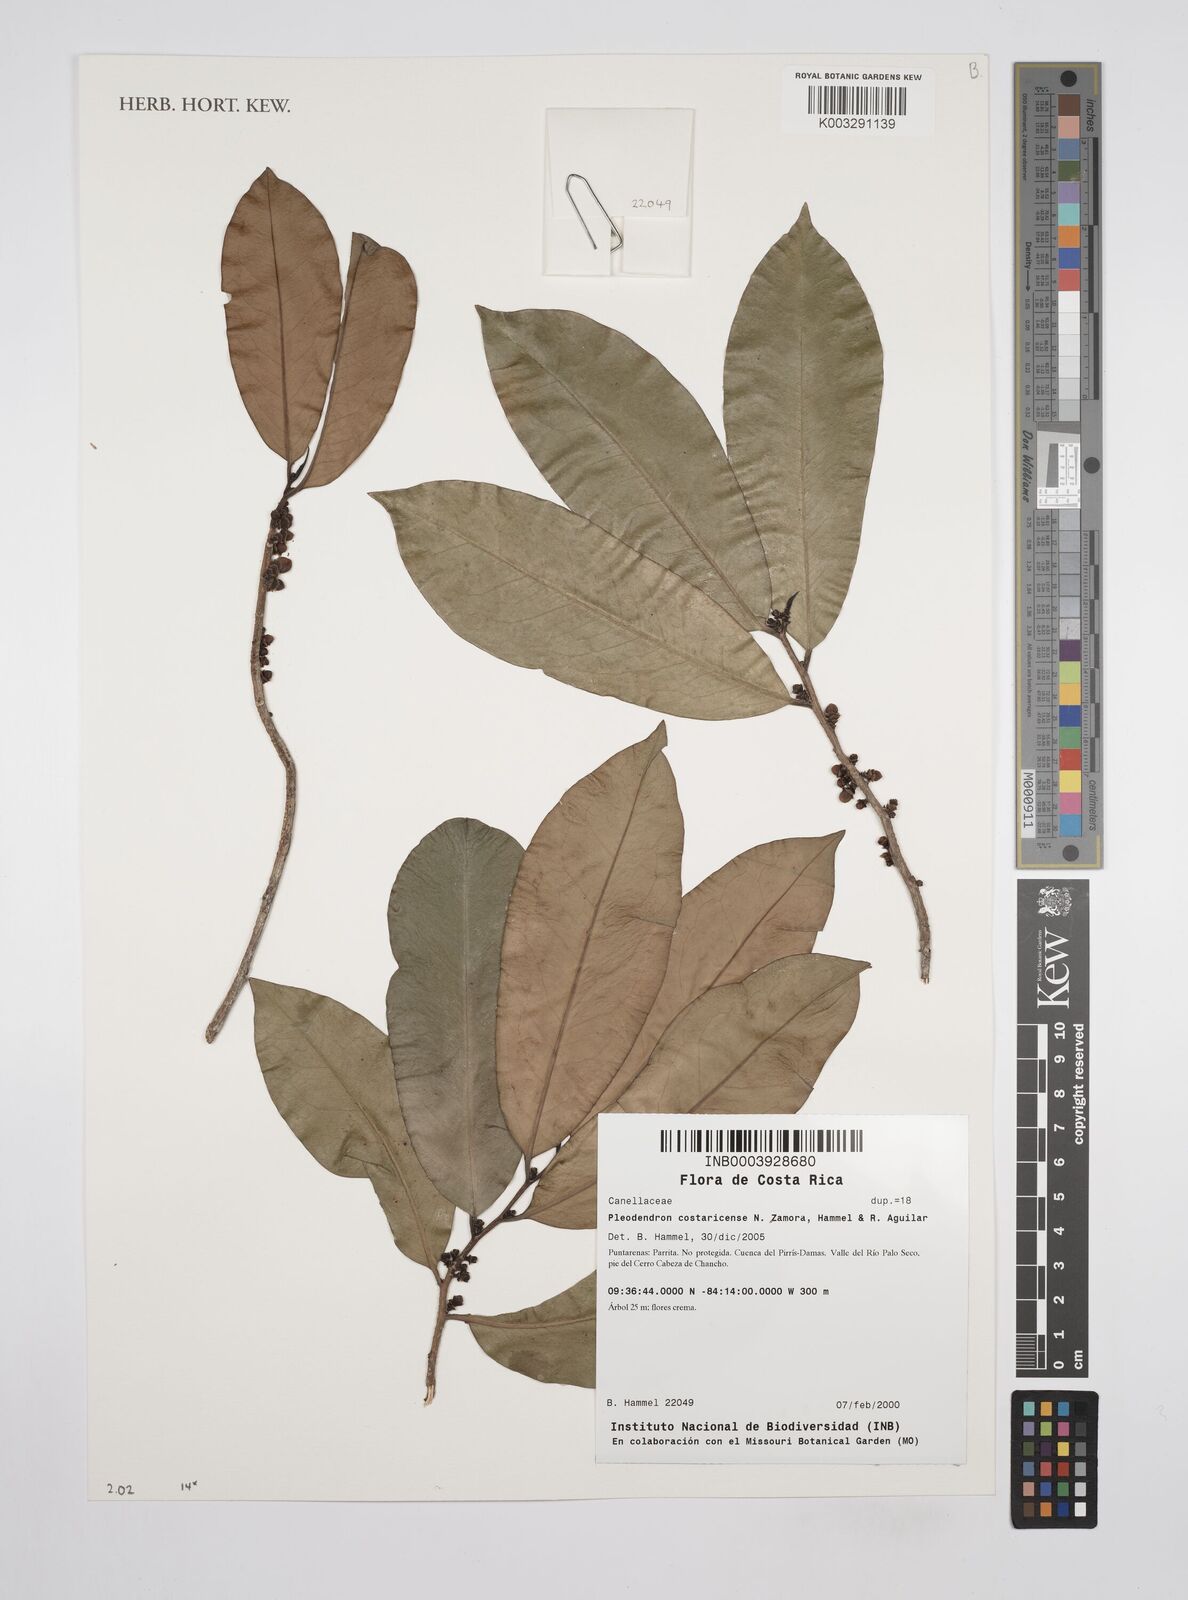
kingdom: Plantae
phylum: Tracheophyta
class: Magnoliopsida
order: Canellales
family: Canellaceae
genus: Pleodendron
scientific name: Pleodendron costaricense
